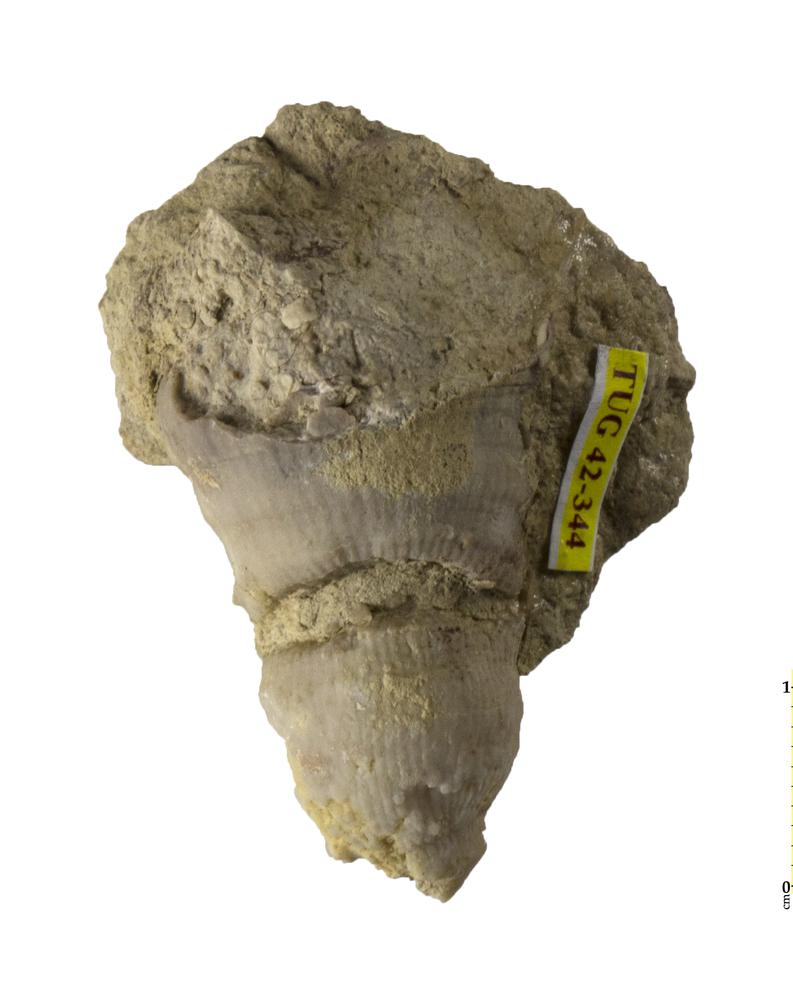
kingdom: Animalia
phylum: Cnidaria
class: Anthozoa
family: Streptelasmatidae
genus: Streptelasma
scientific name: Streptelasma
